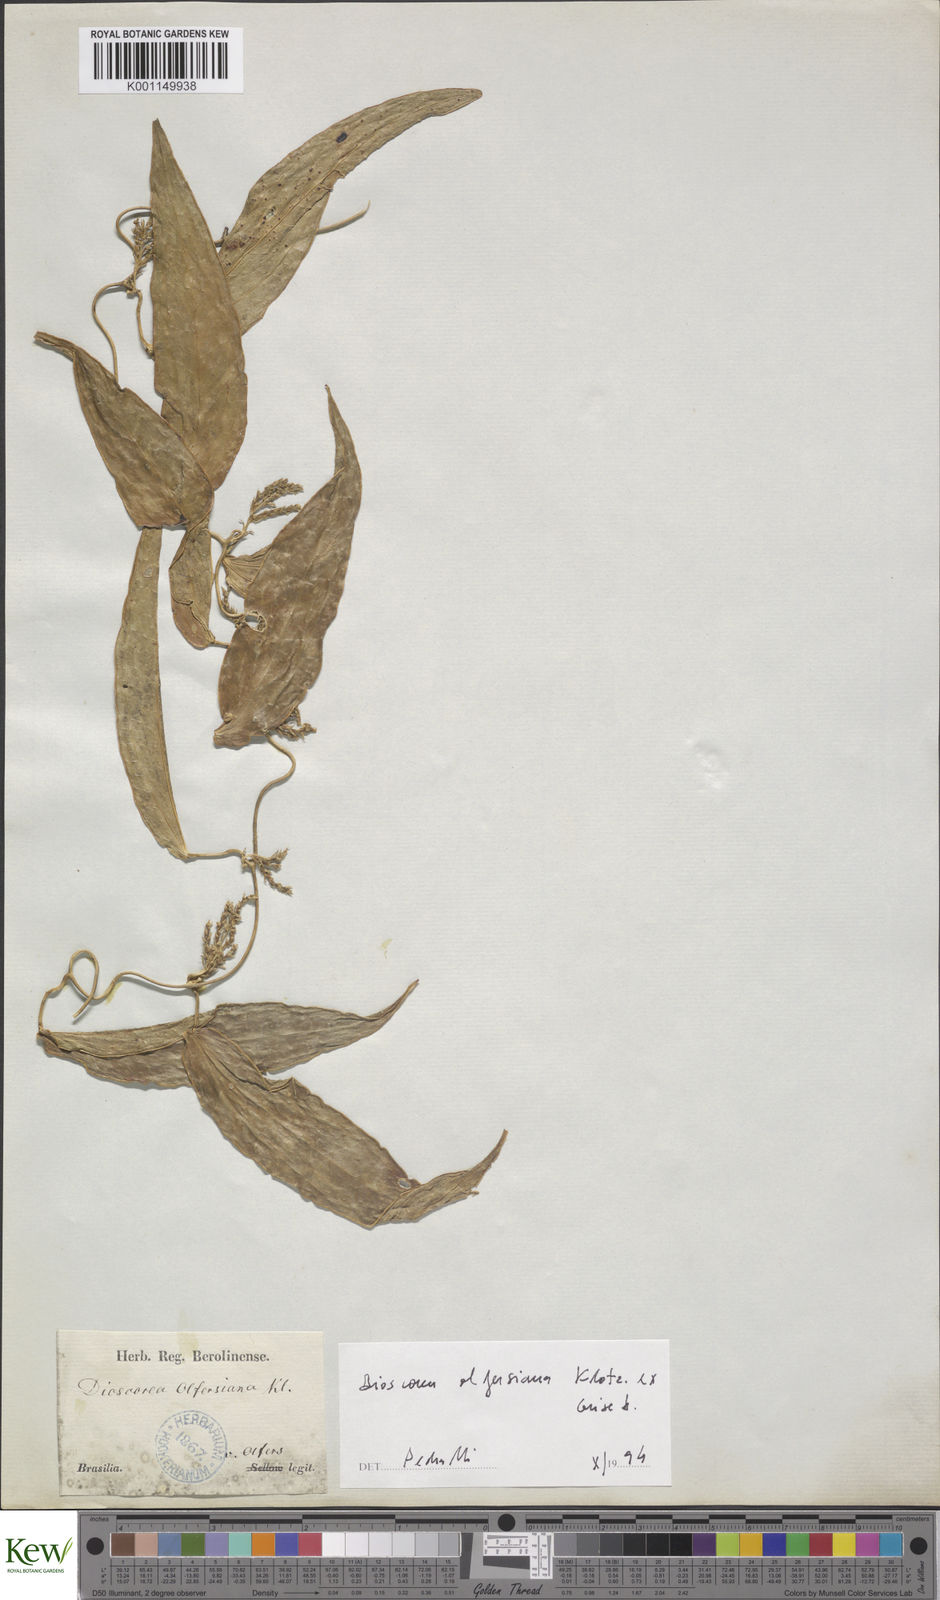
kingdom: Plantae
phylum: Tracheophyta
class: Liliopsida
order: Dioscoreales
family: Dioscoreaceae
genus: Dioscorea
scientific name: Dioscorea olfersiana
